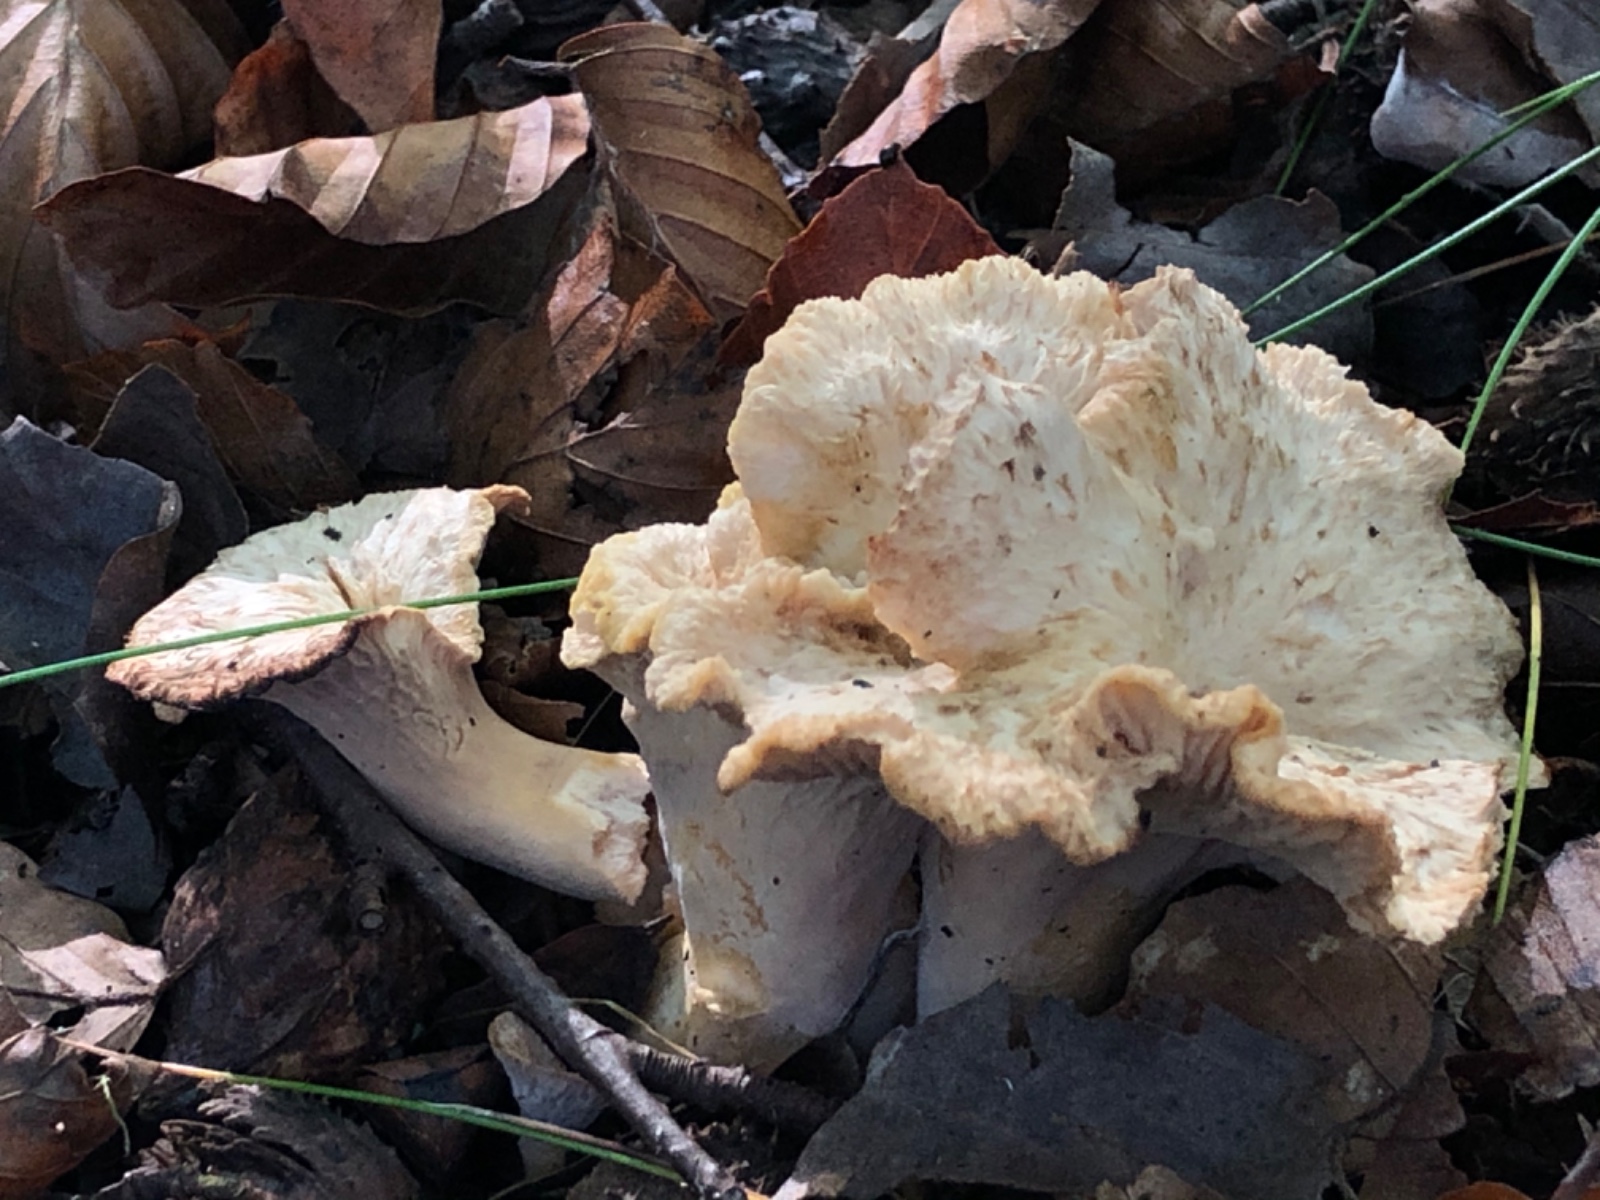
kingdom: Fungi
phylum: Basidiomycota
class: Agaricomycetes
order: Cantharellales
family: Hydnaceae
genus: Cantharellus
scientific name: Cantharellus melanoxeros
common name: sværtende kantarel
